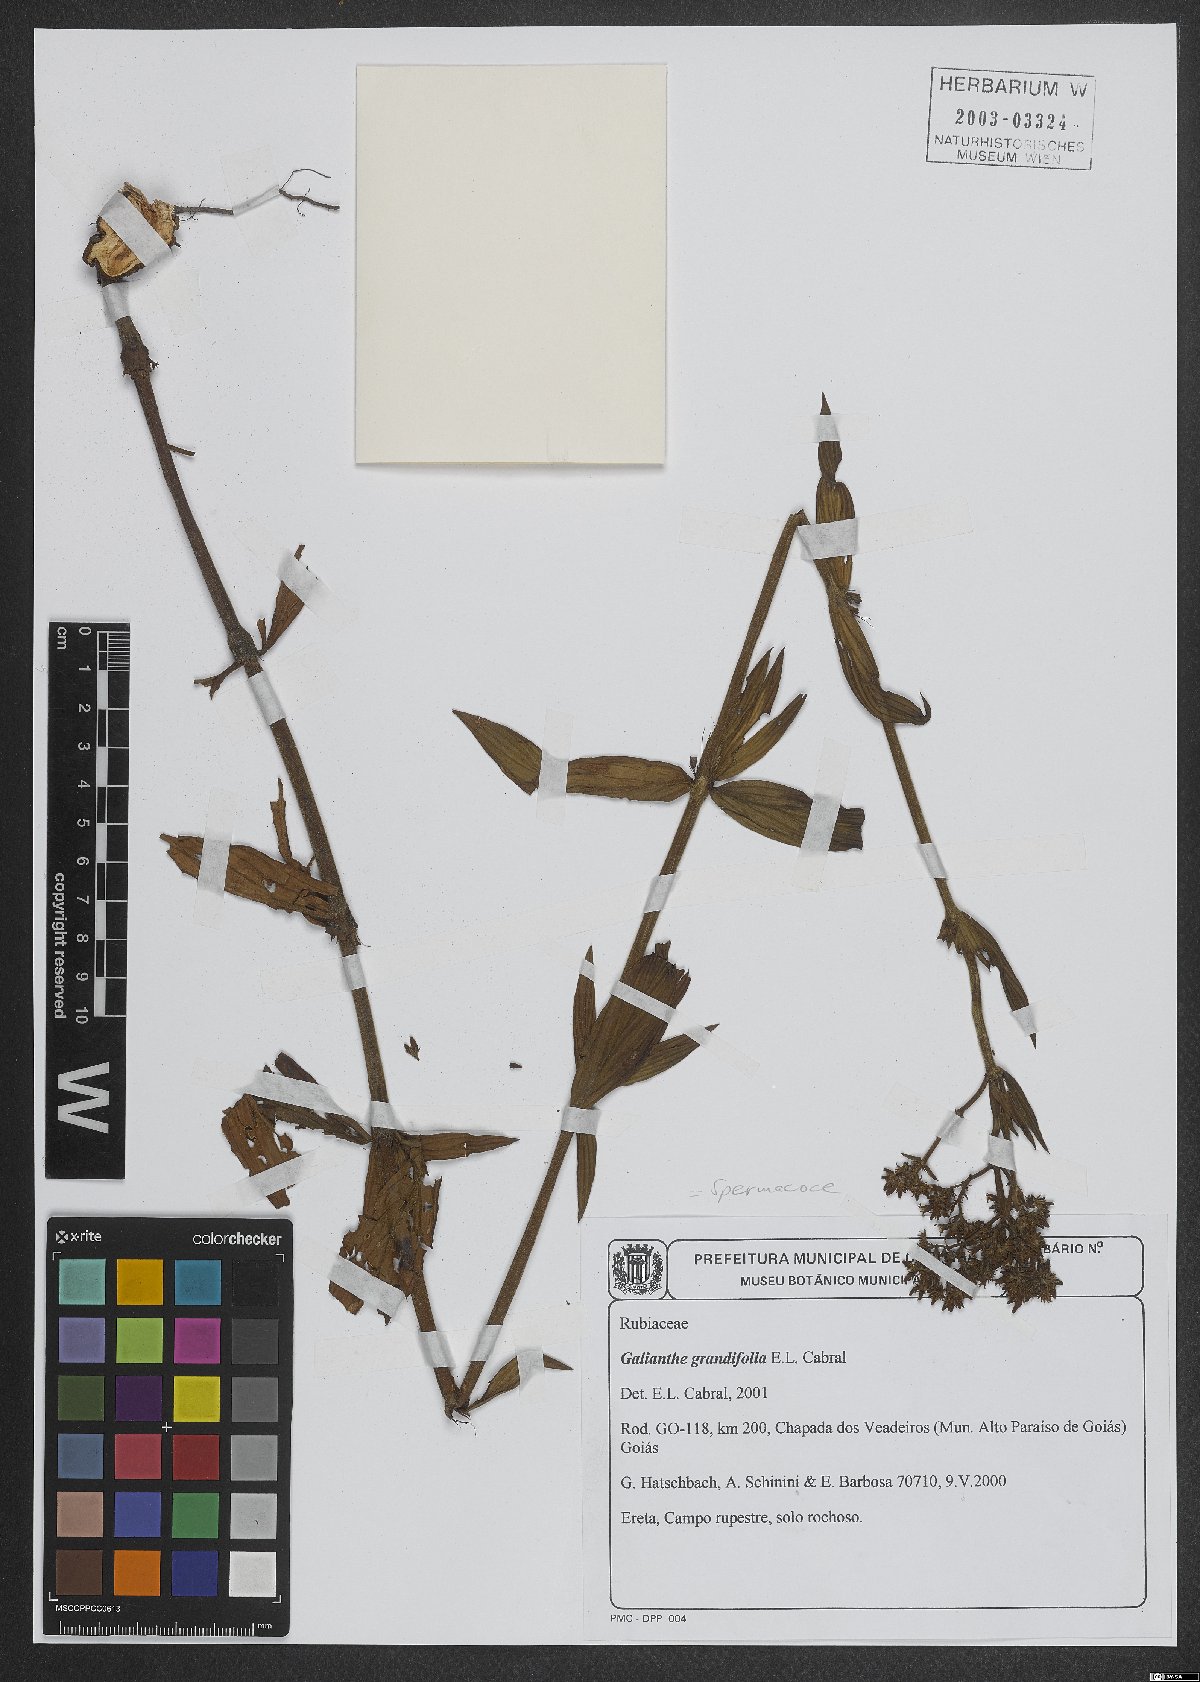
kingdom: Plantae
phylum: Tracheophyta
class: Magnoliopsida
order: Gentianales
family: Rubiaceae
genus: Galianthe
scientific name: Galianthe grandifolia
